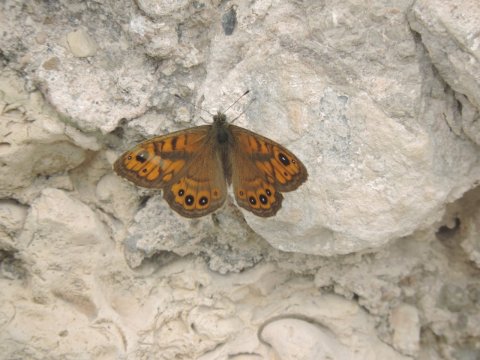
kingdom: Animalia
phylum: Arthropoda
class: Insecta
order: Lepidoptera
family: Nymphalidae
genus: Pararge
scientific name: Pararge Lasiommata megera
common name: Wall
